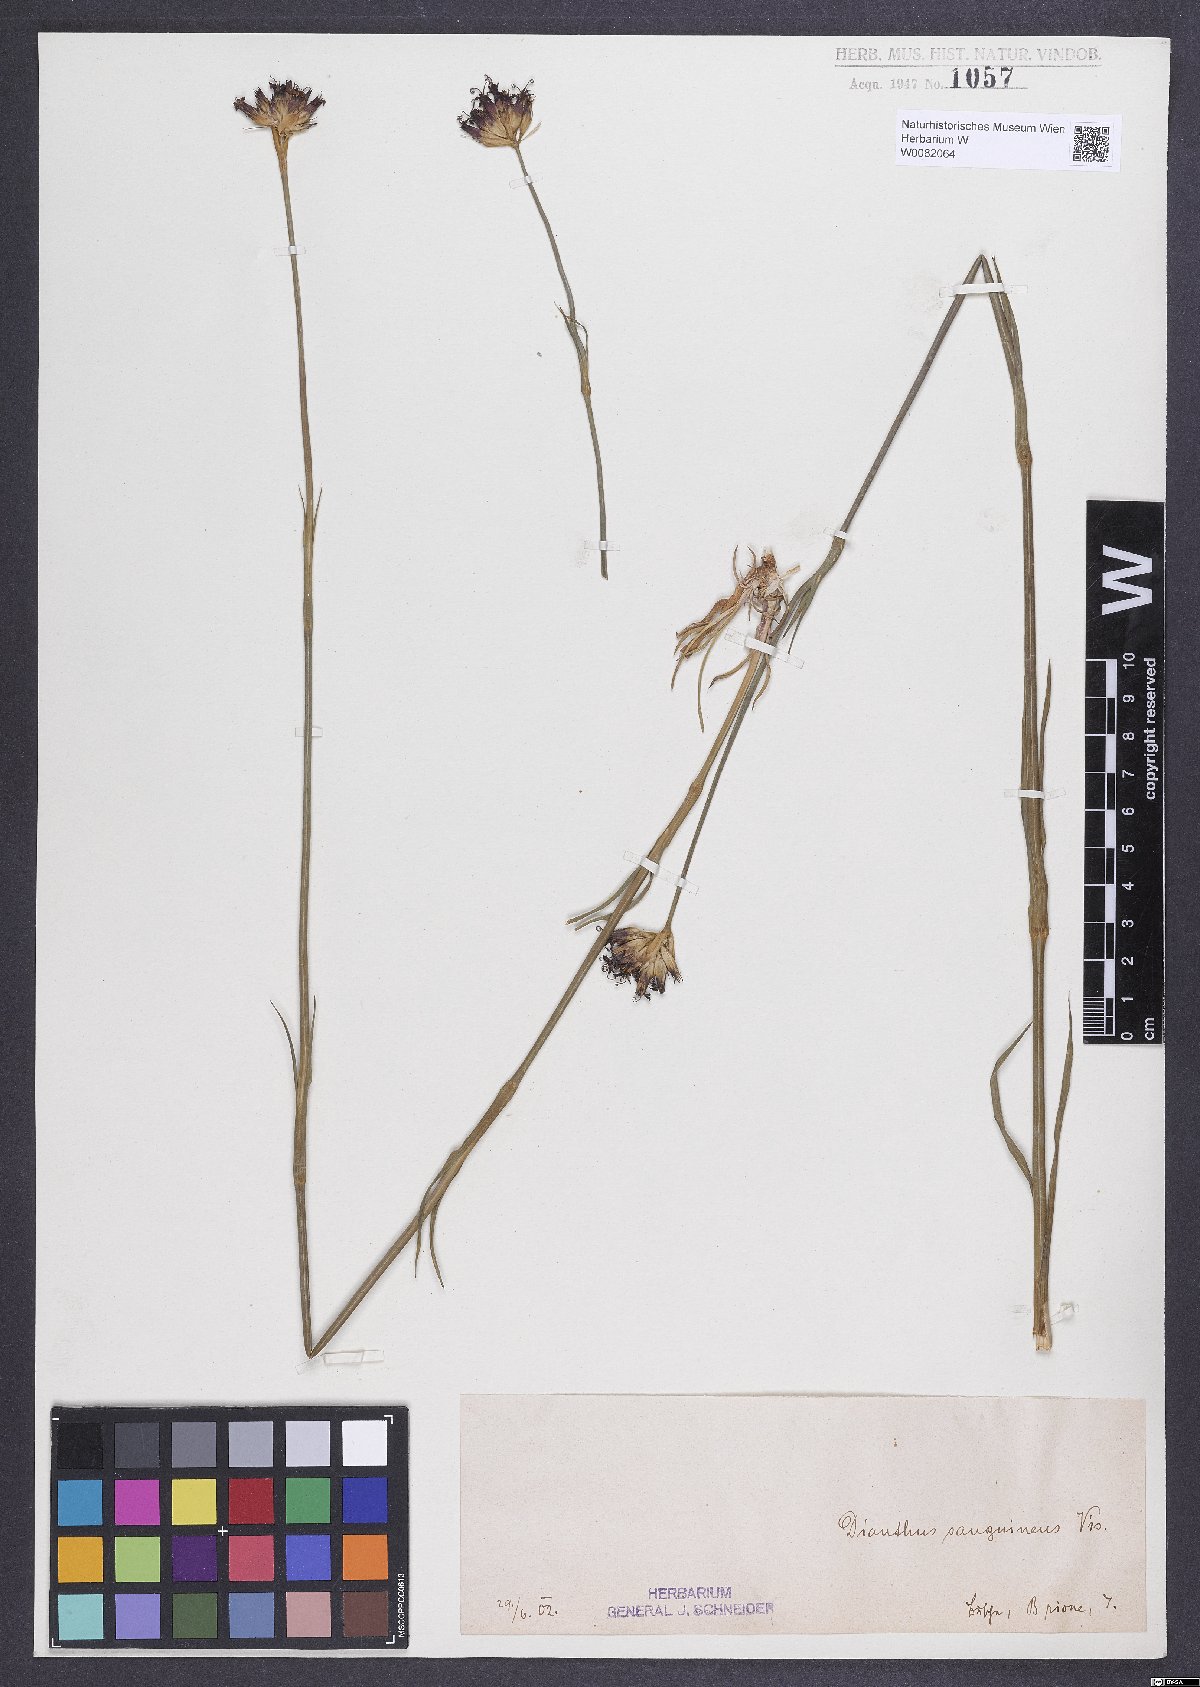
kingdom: Plantae
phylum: Tracheophyta
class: Magnoliopsida
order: Caryophyllales
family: Caryophyllaceae
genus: Dianthus
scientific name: Dianthus carthusianorum
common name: Carthusian pink
